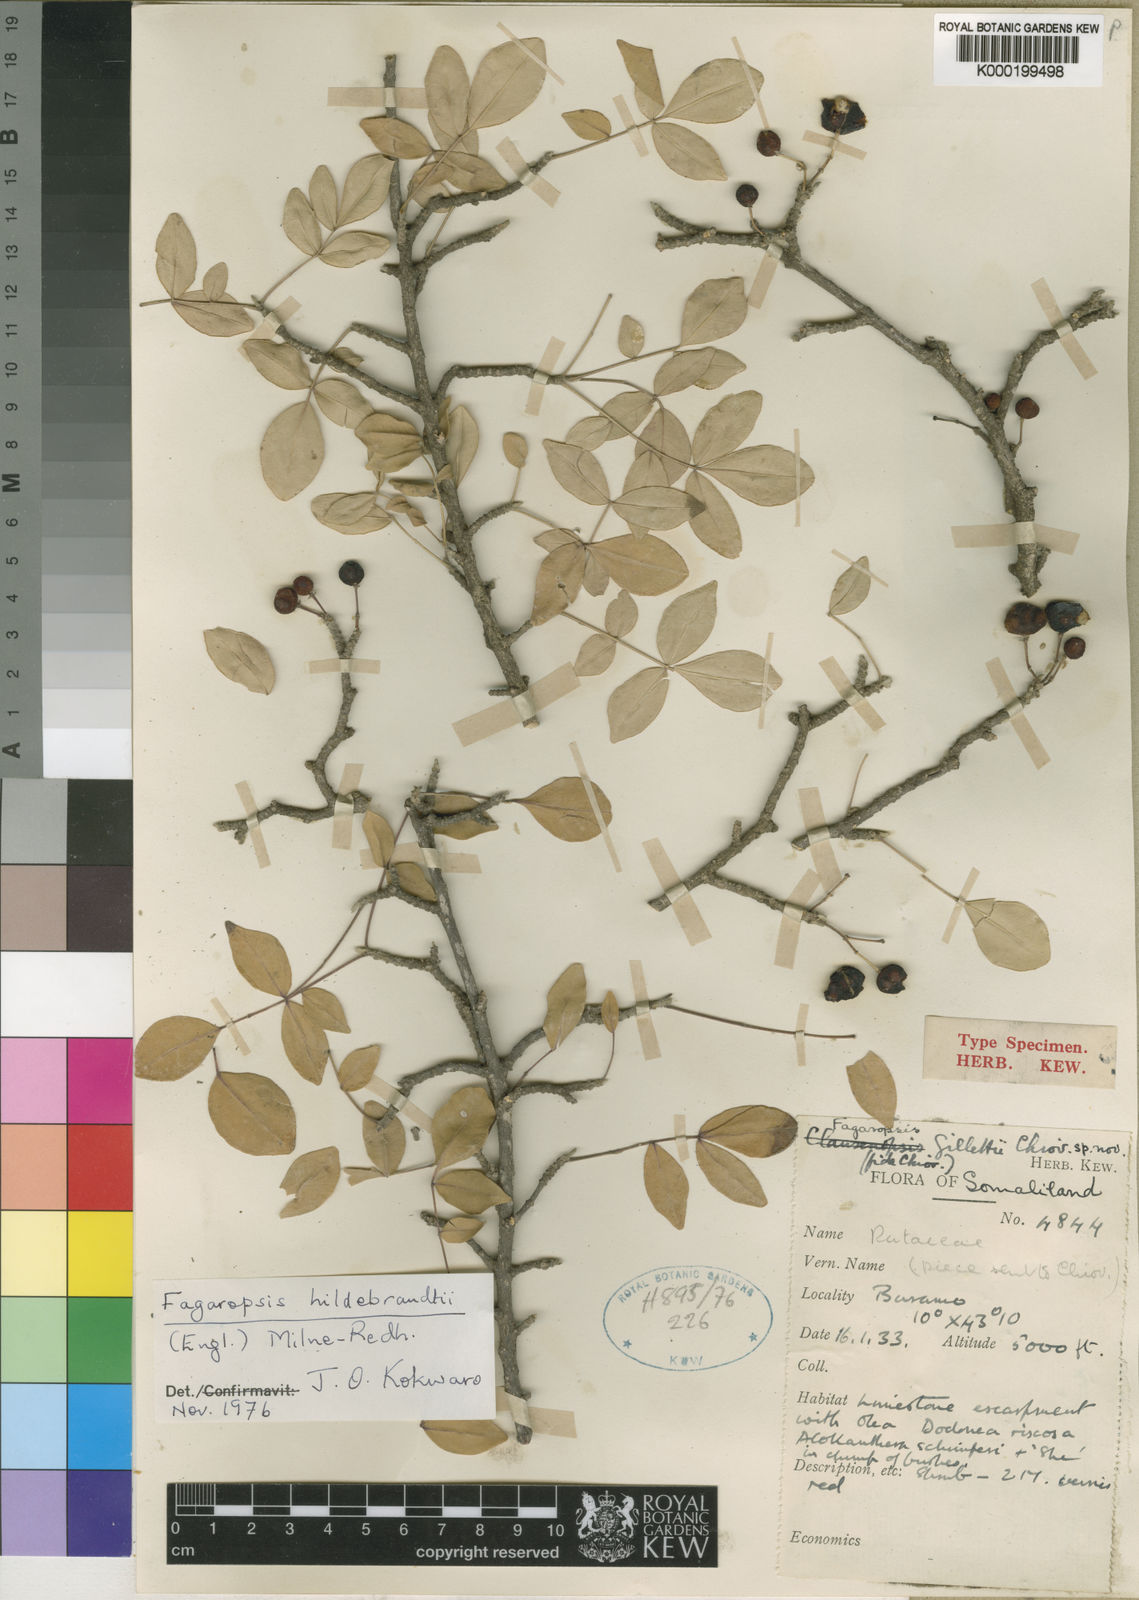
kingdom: Plantae
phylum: Tracheophyta
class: Magnoliopsida
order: Sapindales
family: Rutaceae
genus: Fagaropsis
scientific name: Fagaropsis hildebrandtii
